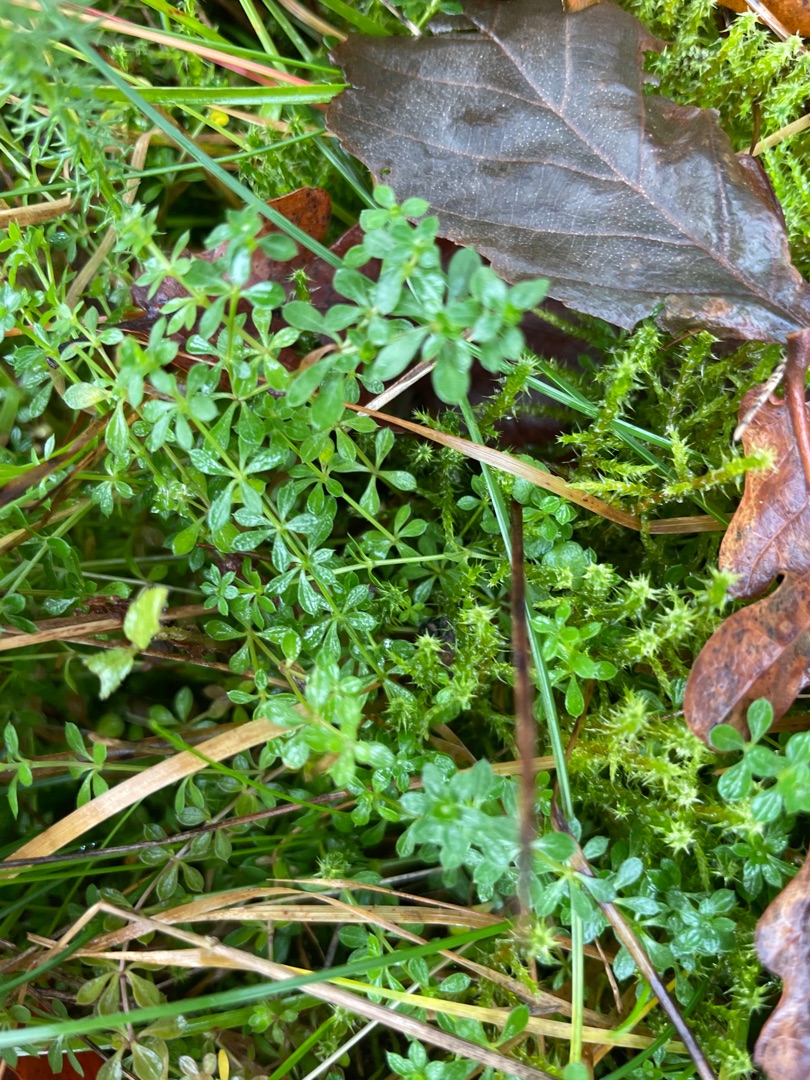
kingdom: Plantae
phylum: Tracheophyta
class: Magnoliopsida
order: Gentianales
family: Rubiaceae
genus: Galium
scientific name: Galium saxatile
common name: Lyng-snerre
